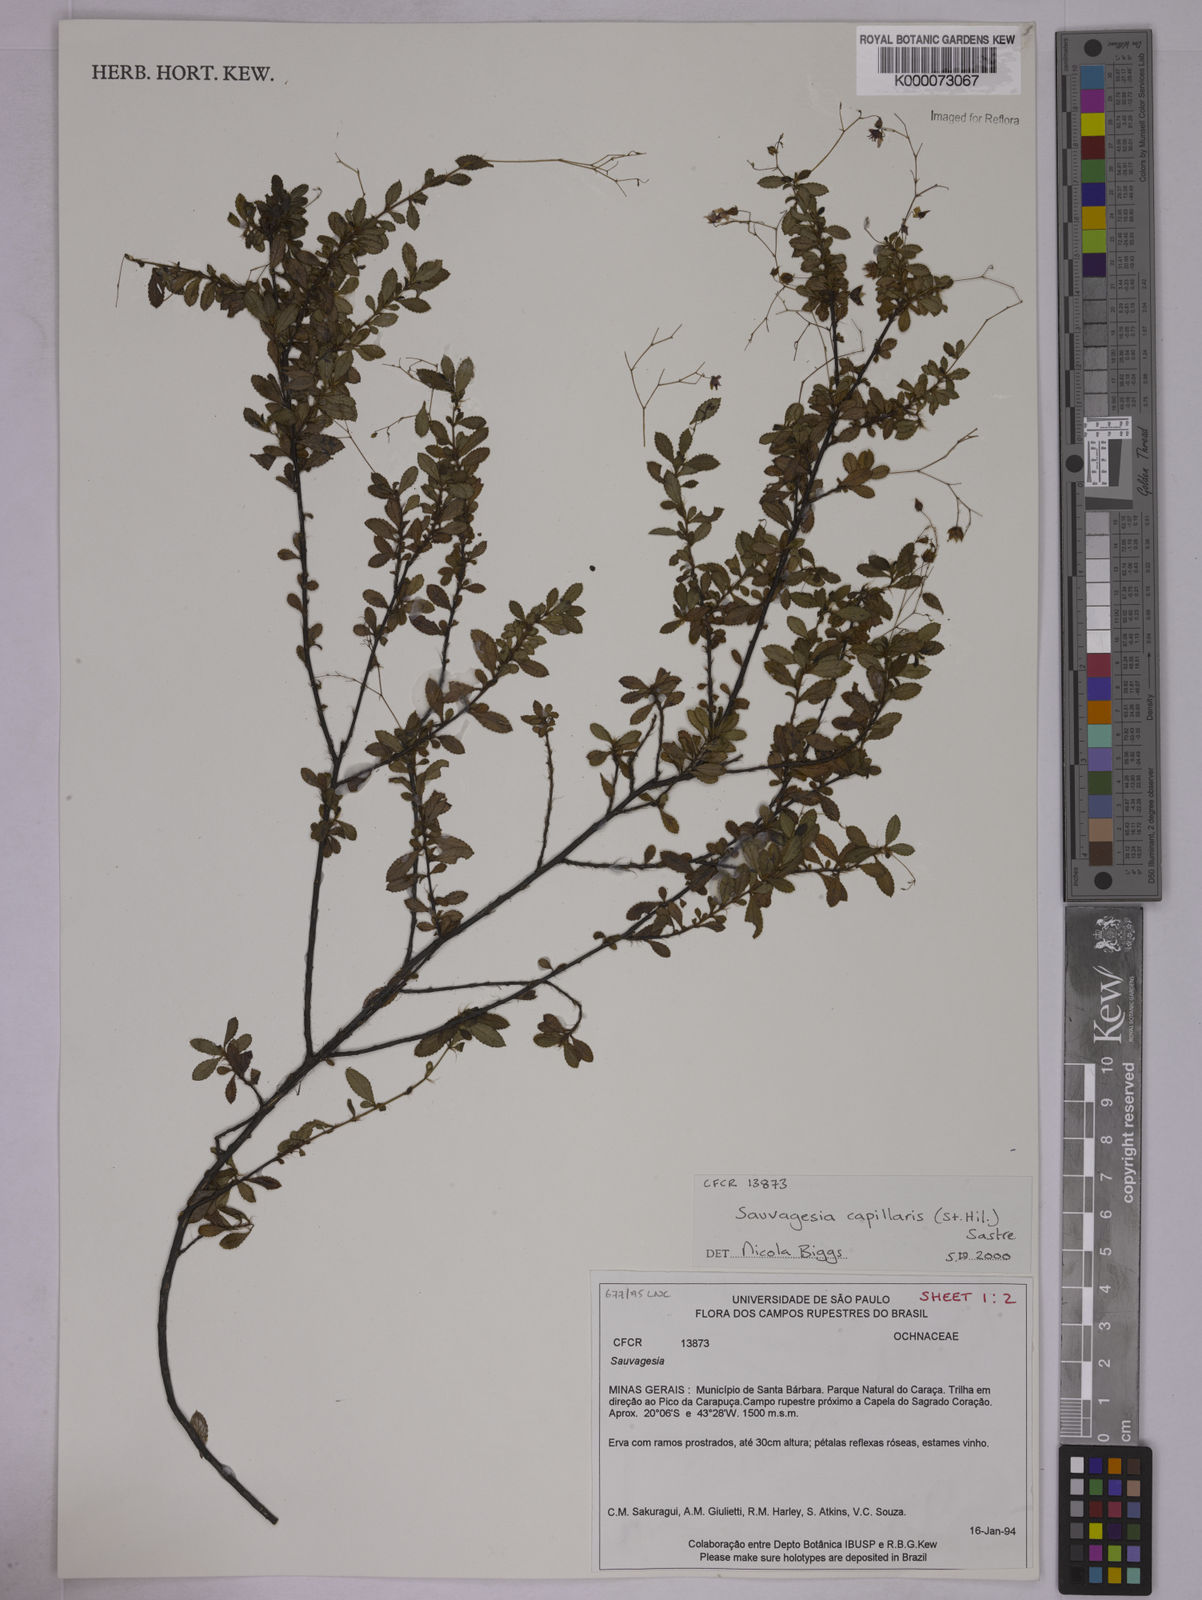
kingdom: Plantae
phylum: Tracheophyta
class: Magnoliopsida
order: Malpighiales
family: Ochnaceae
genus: Sauvagesia
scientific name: Sauvagesia capillaris
